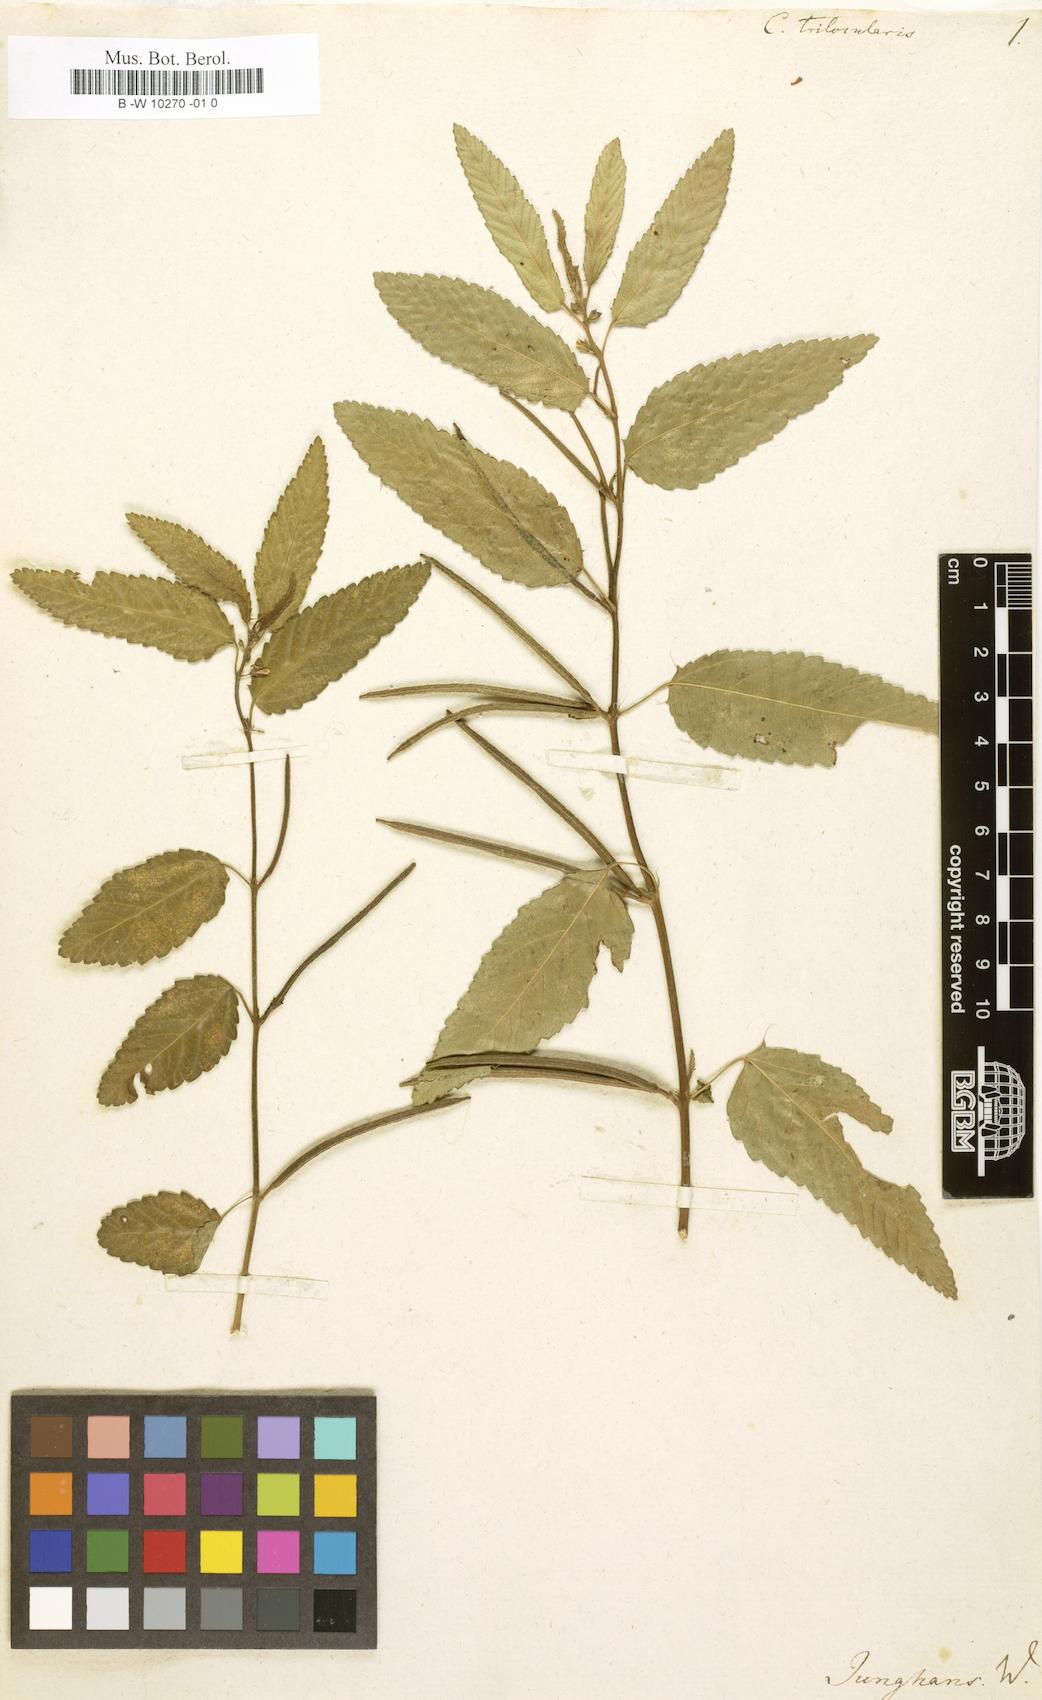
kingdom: Plantae
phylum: Tracheophyta
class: Magnoliopsida
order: Malvales
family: Malvaceae
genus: Corchorus
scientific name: Corchorus trilocularis
